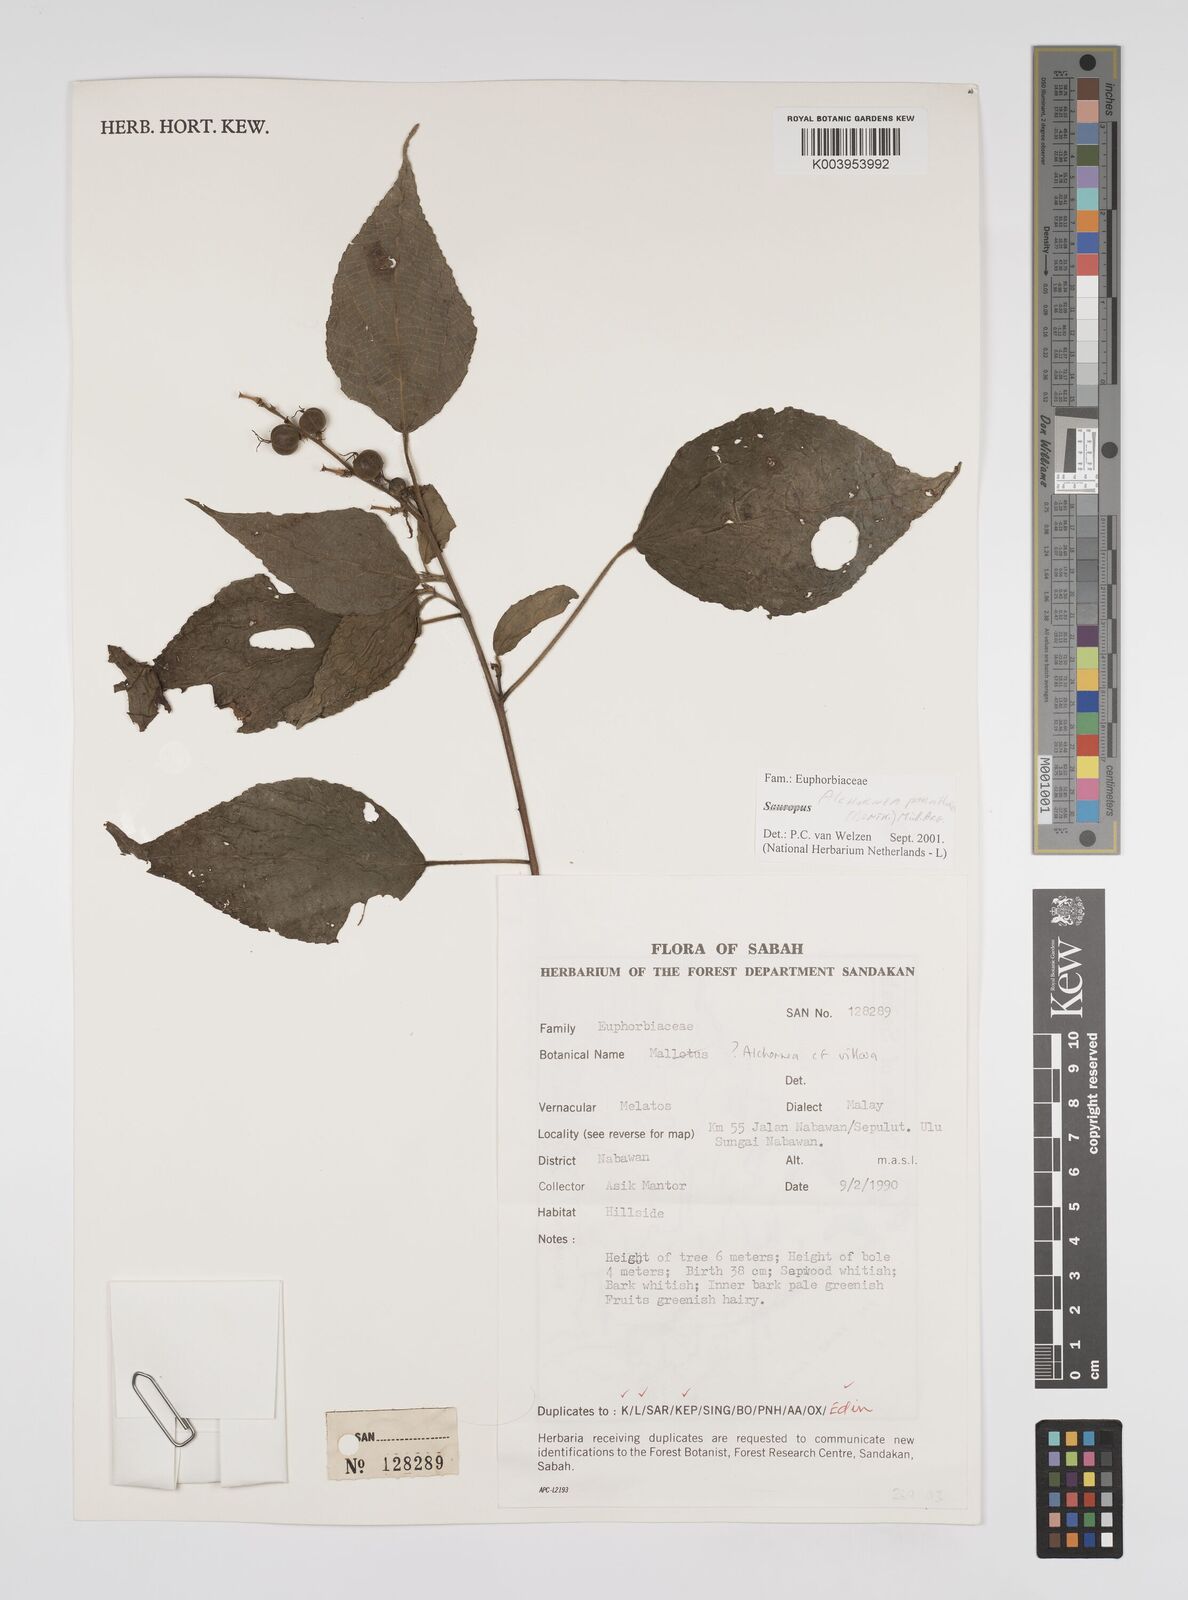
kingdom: Plantae
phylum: Tracheophyta
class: Magnoliopsida
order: Malpighiales
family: Euphorbiaceae
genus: Alchornea
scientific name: Alchornea parviflora
